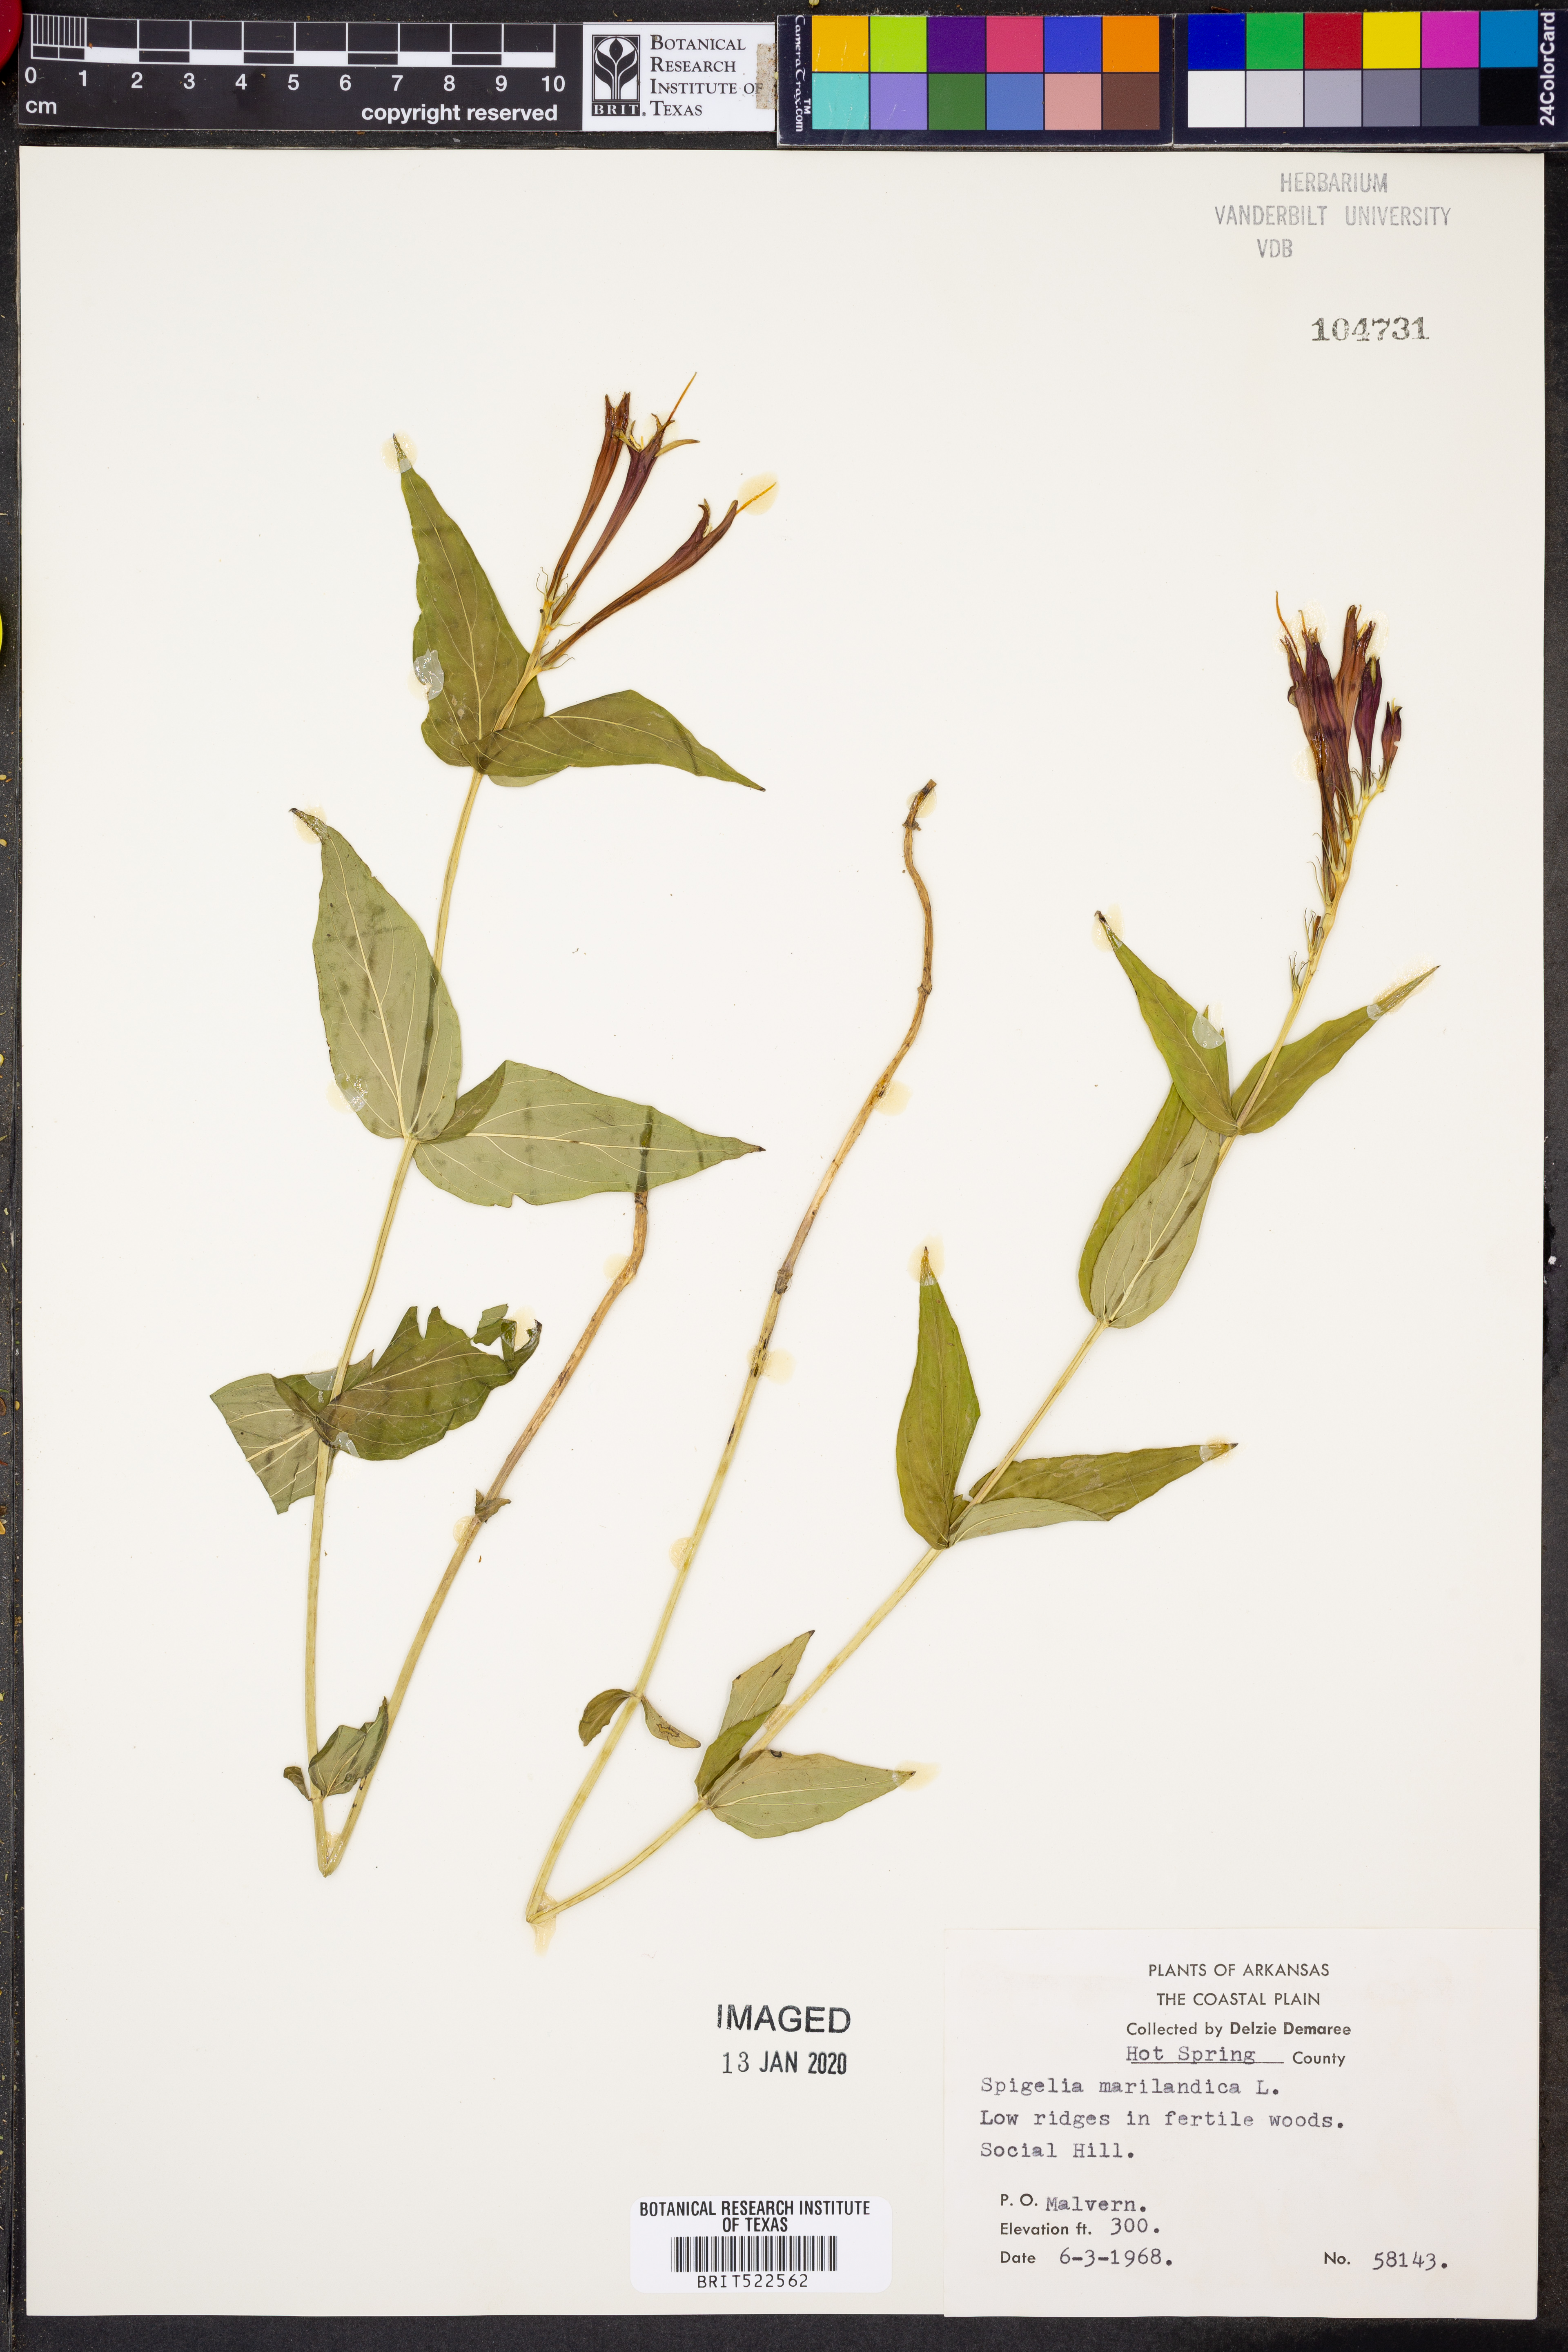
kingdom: Plantae
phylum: Tracheophyta
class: Magnoliopsida
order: Gentianales
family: Loganiaceae
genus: Spigelia
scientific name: Spigelia marilandica
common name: Indian-pink
